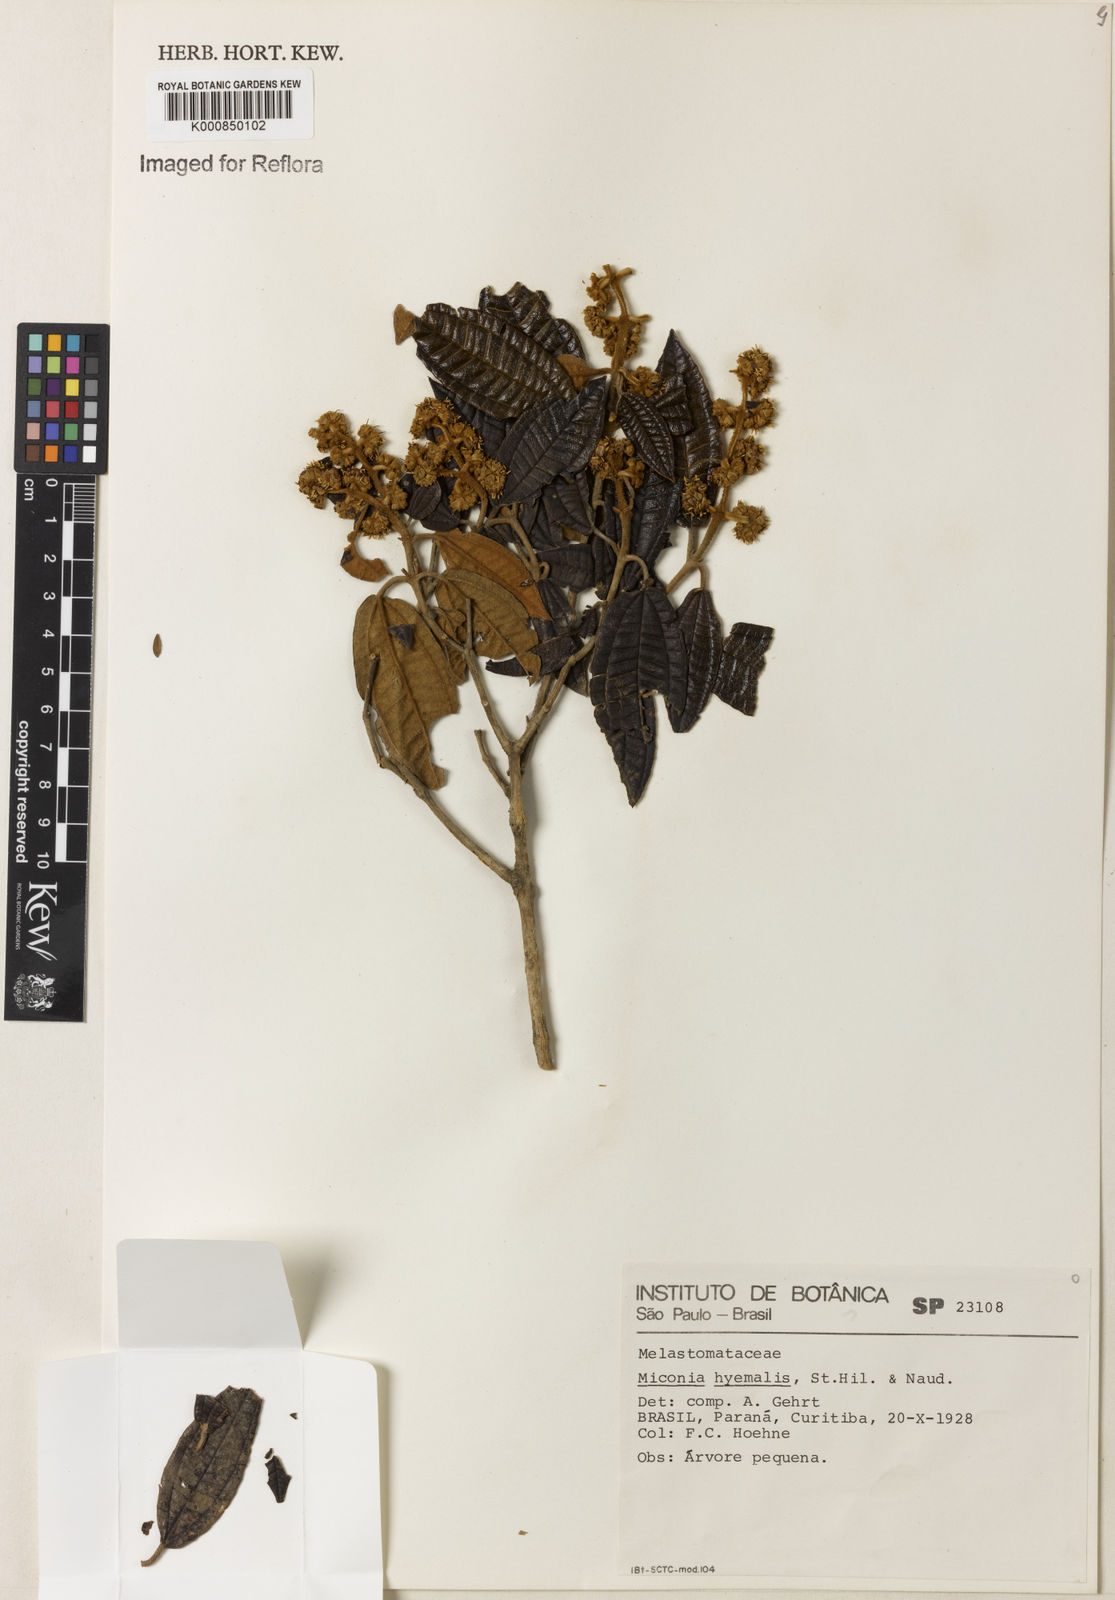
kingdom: Plantae
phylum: Tracheophyta
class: Magnoliopsida
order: Myrtales
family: Melastomataceae
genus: Miconia
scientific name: Miconia hyemalis
